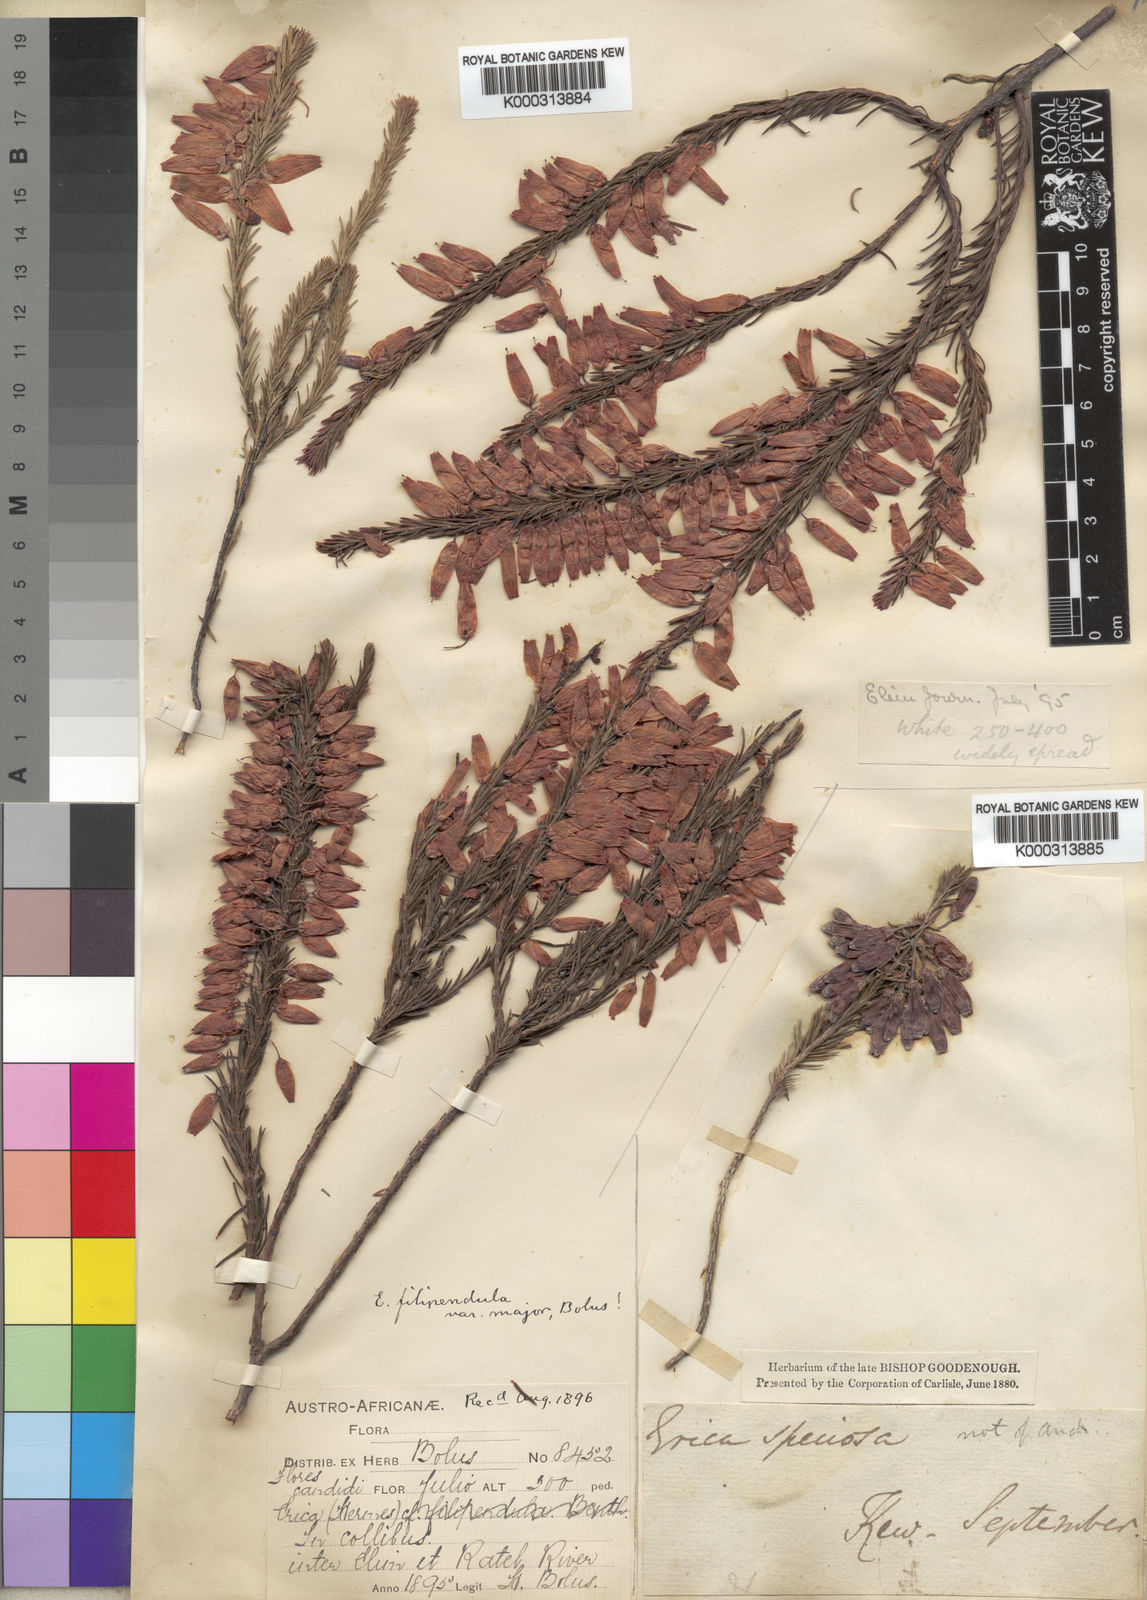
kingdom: Plantae
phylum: Tracheophyta
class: Magnoliopsida
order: Ericales
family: Ericaceae
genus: Erica
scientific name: Erica filipendula
